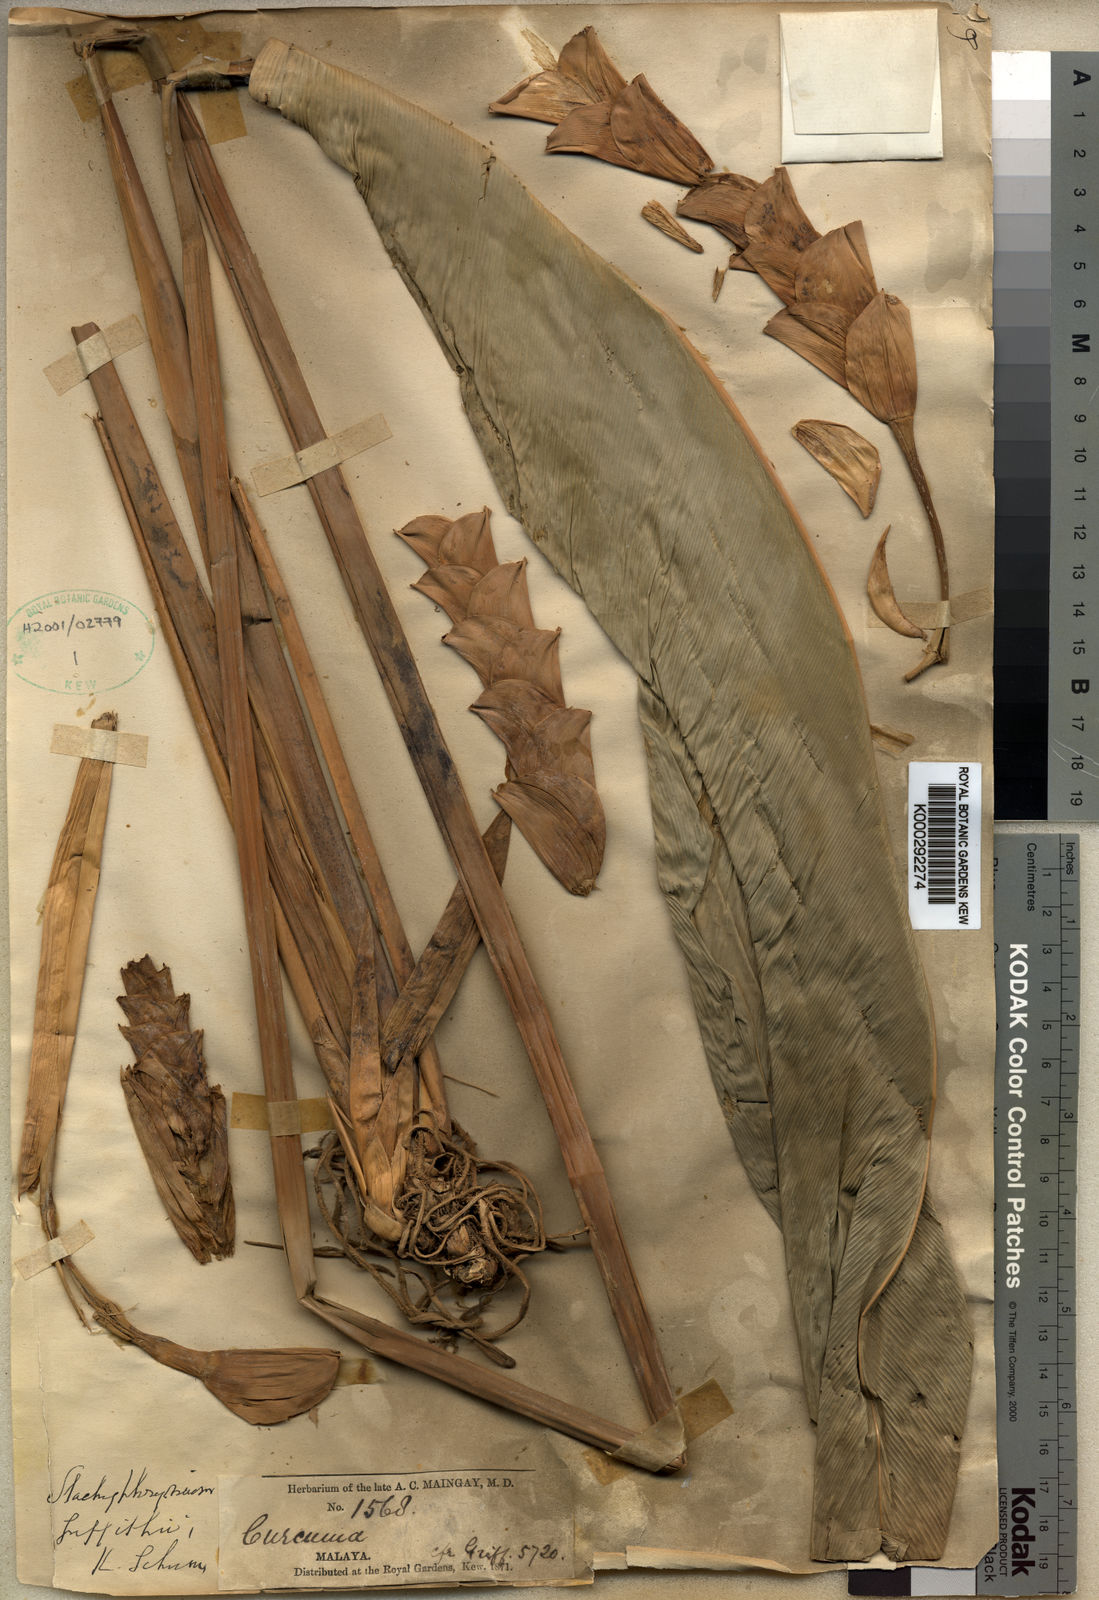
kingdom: Plantae
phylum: Tracheophyta
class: Liliopsida
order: Zingiberales
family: Marantaceae
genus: Stachyphrynium
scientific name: Stachyphrynium latifolium
